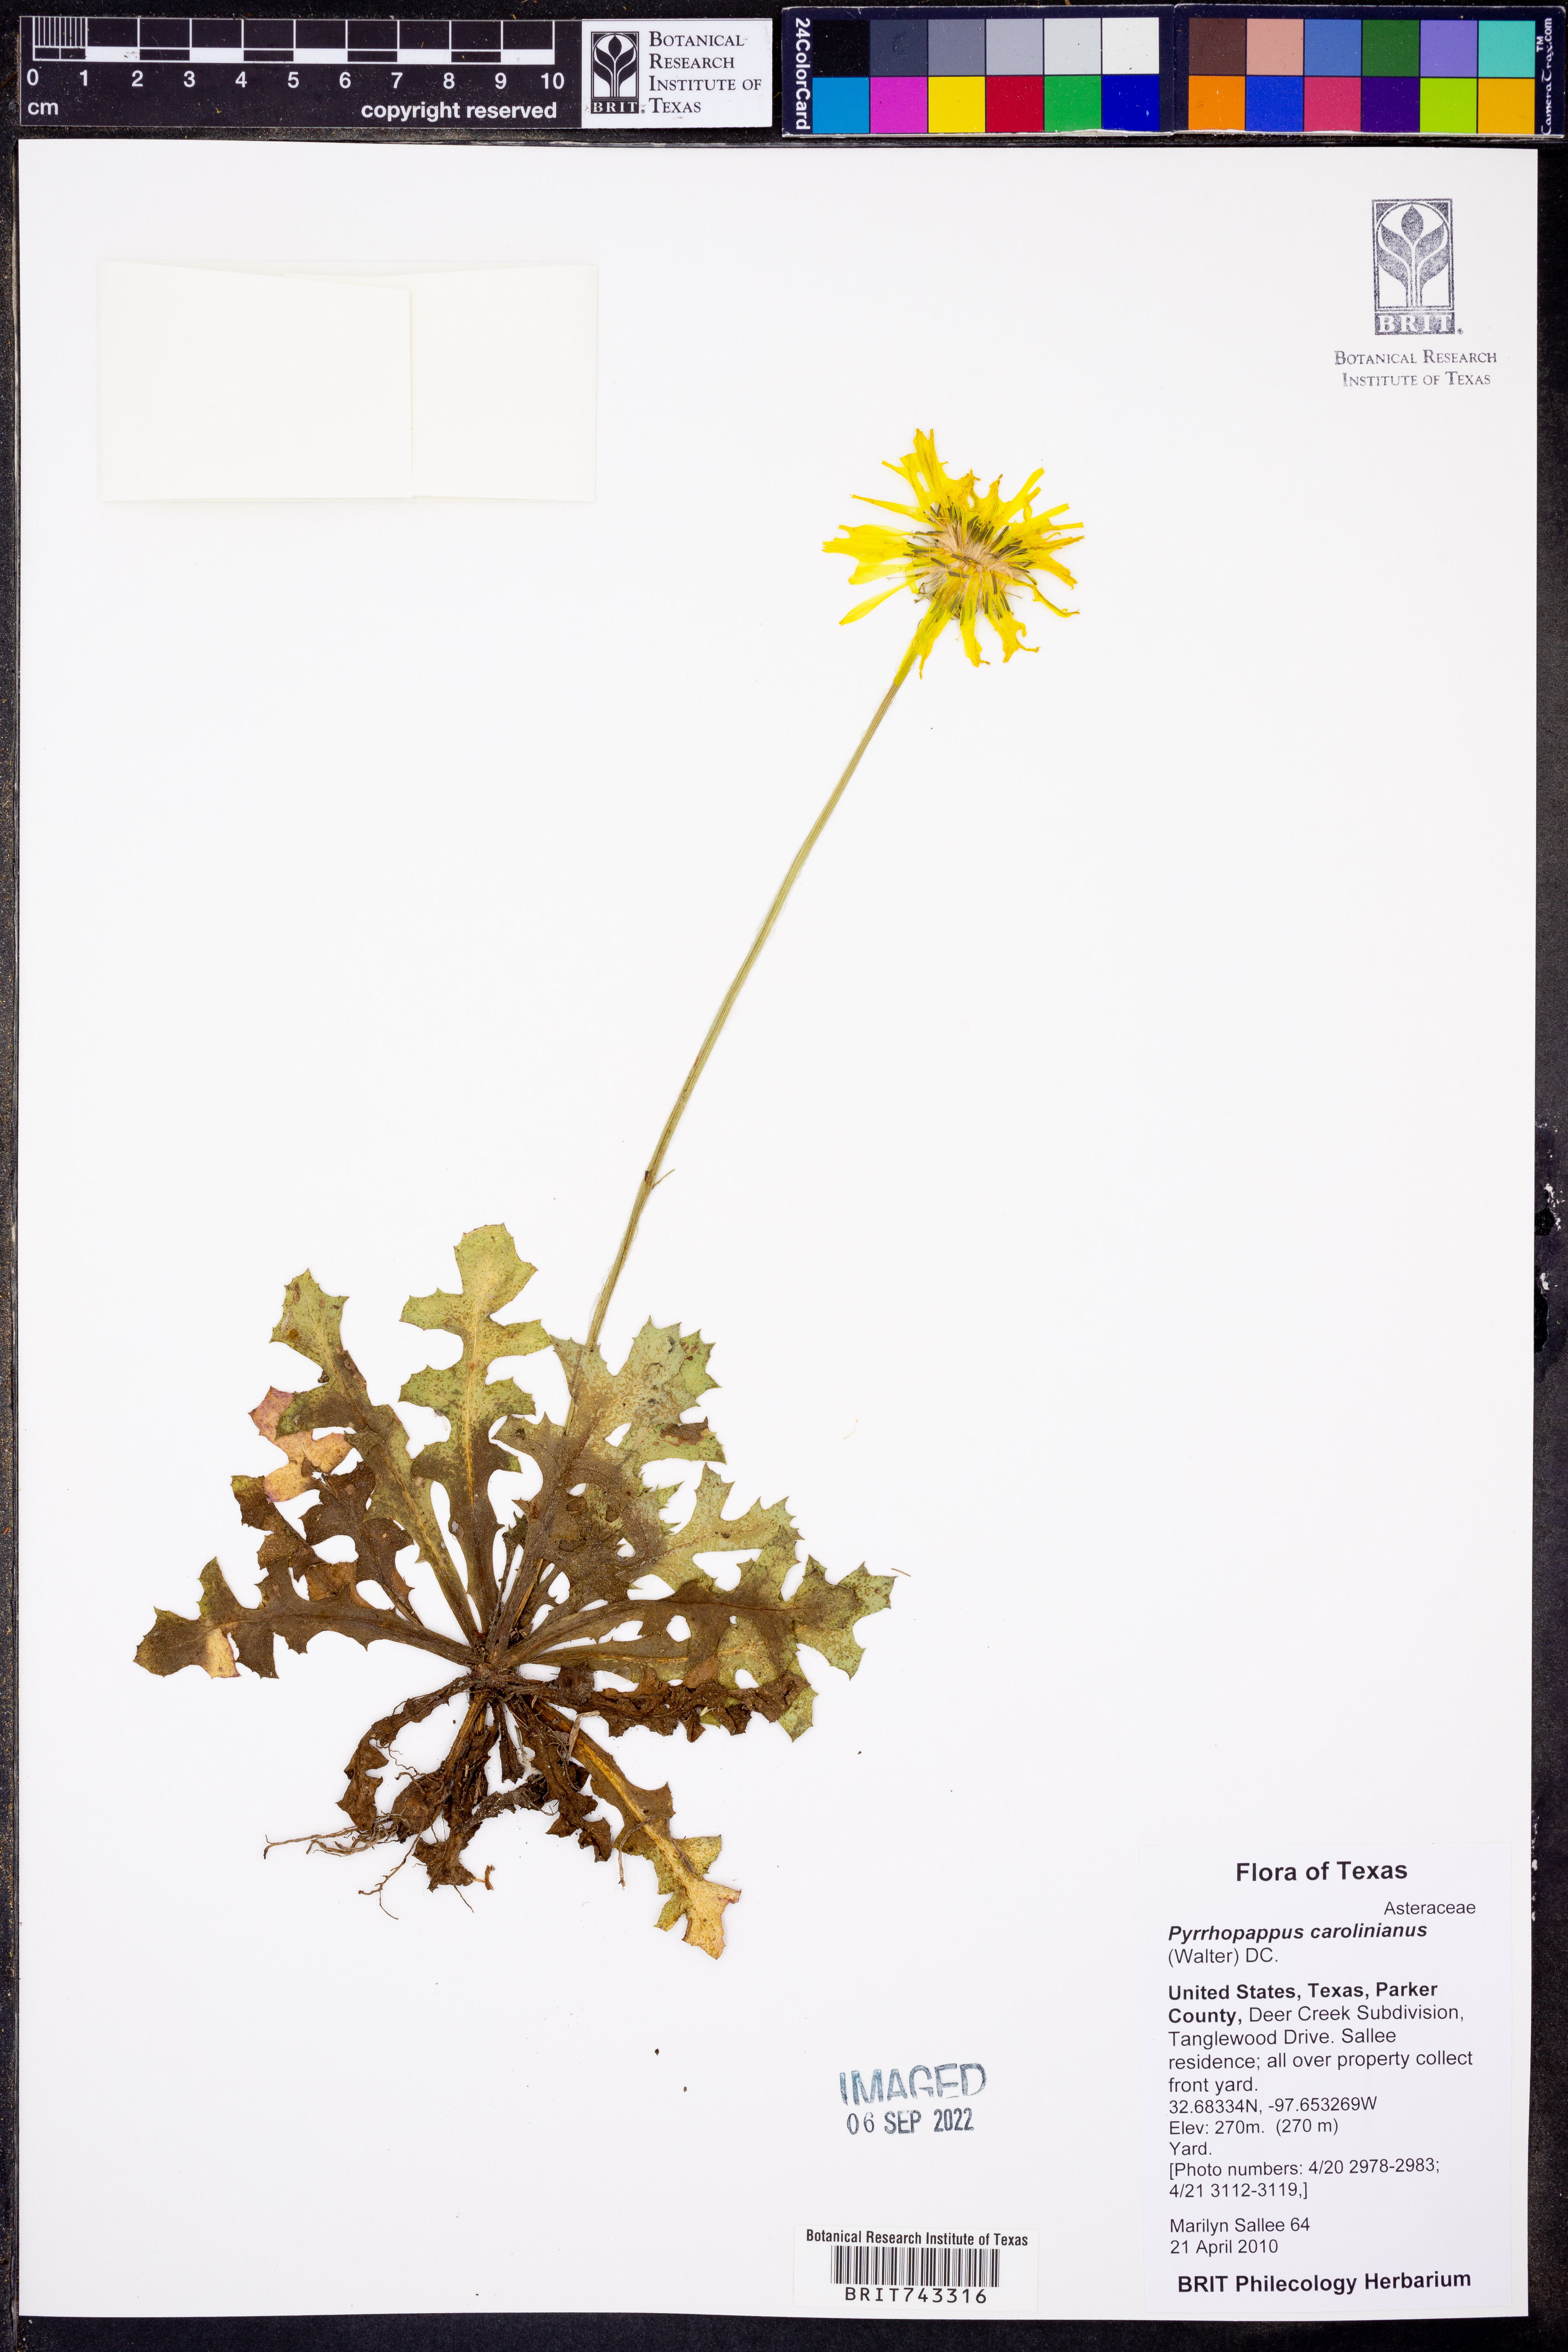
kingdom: Plantae
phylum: Tracheophyta
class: Magnoliopsida
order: Asterales
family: Asteraceae
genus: Pyrrhopappus
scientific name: Pyrrhopappus carolinianus
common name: Carolina desert-chicory
